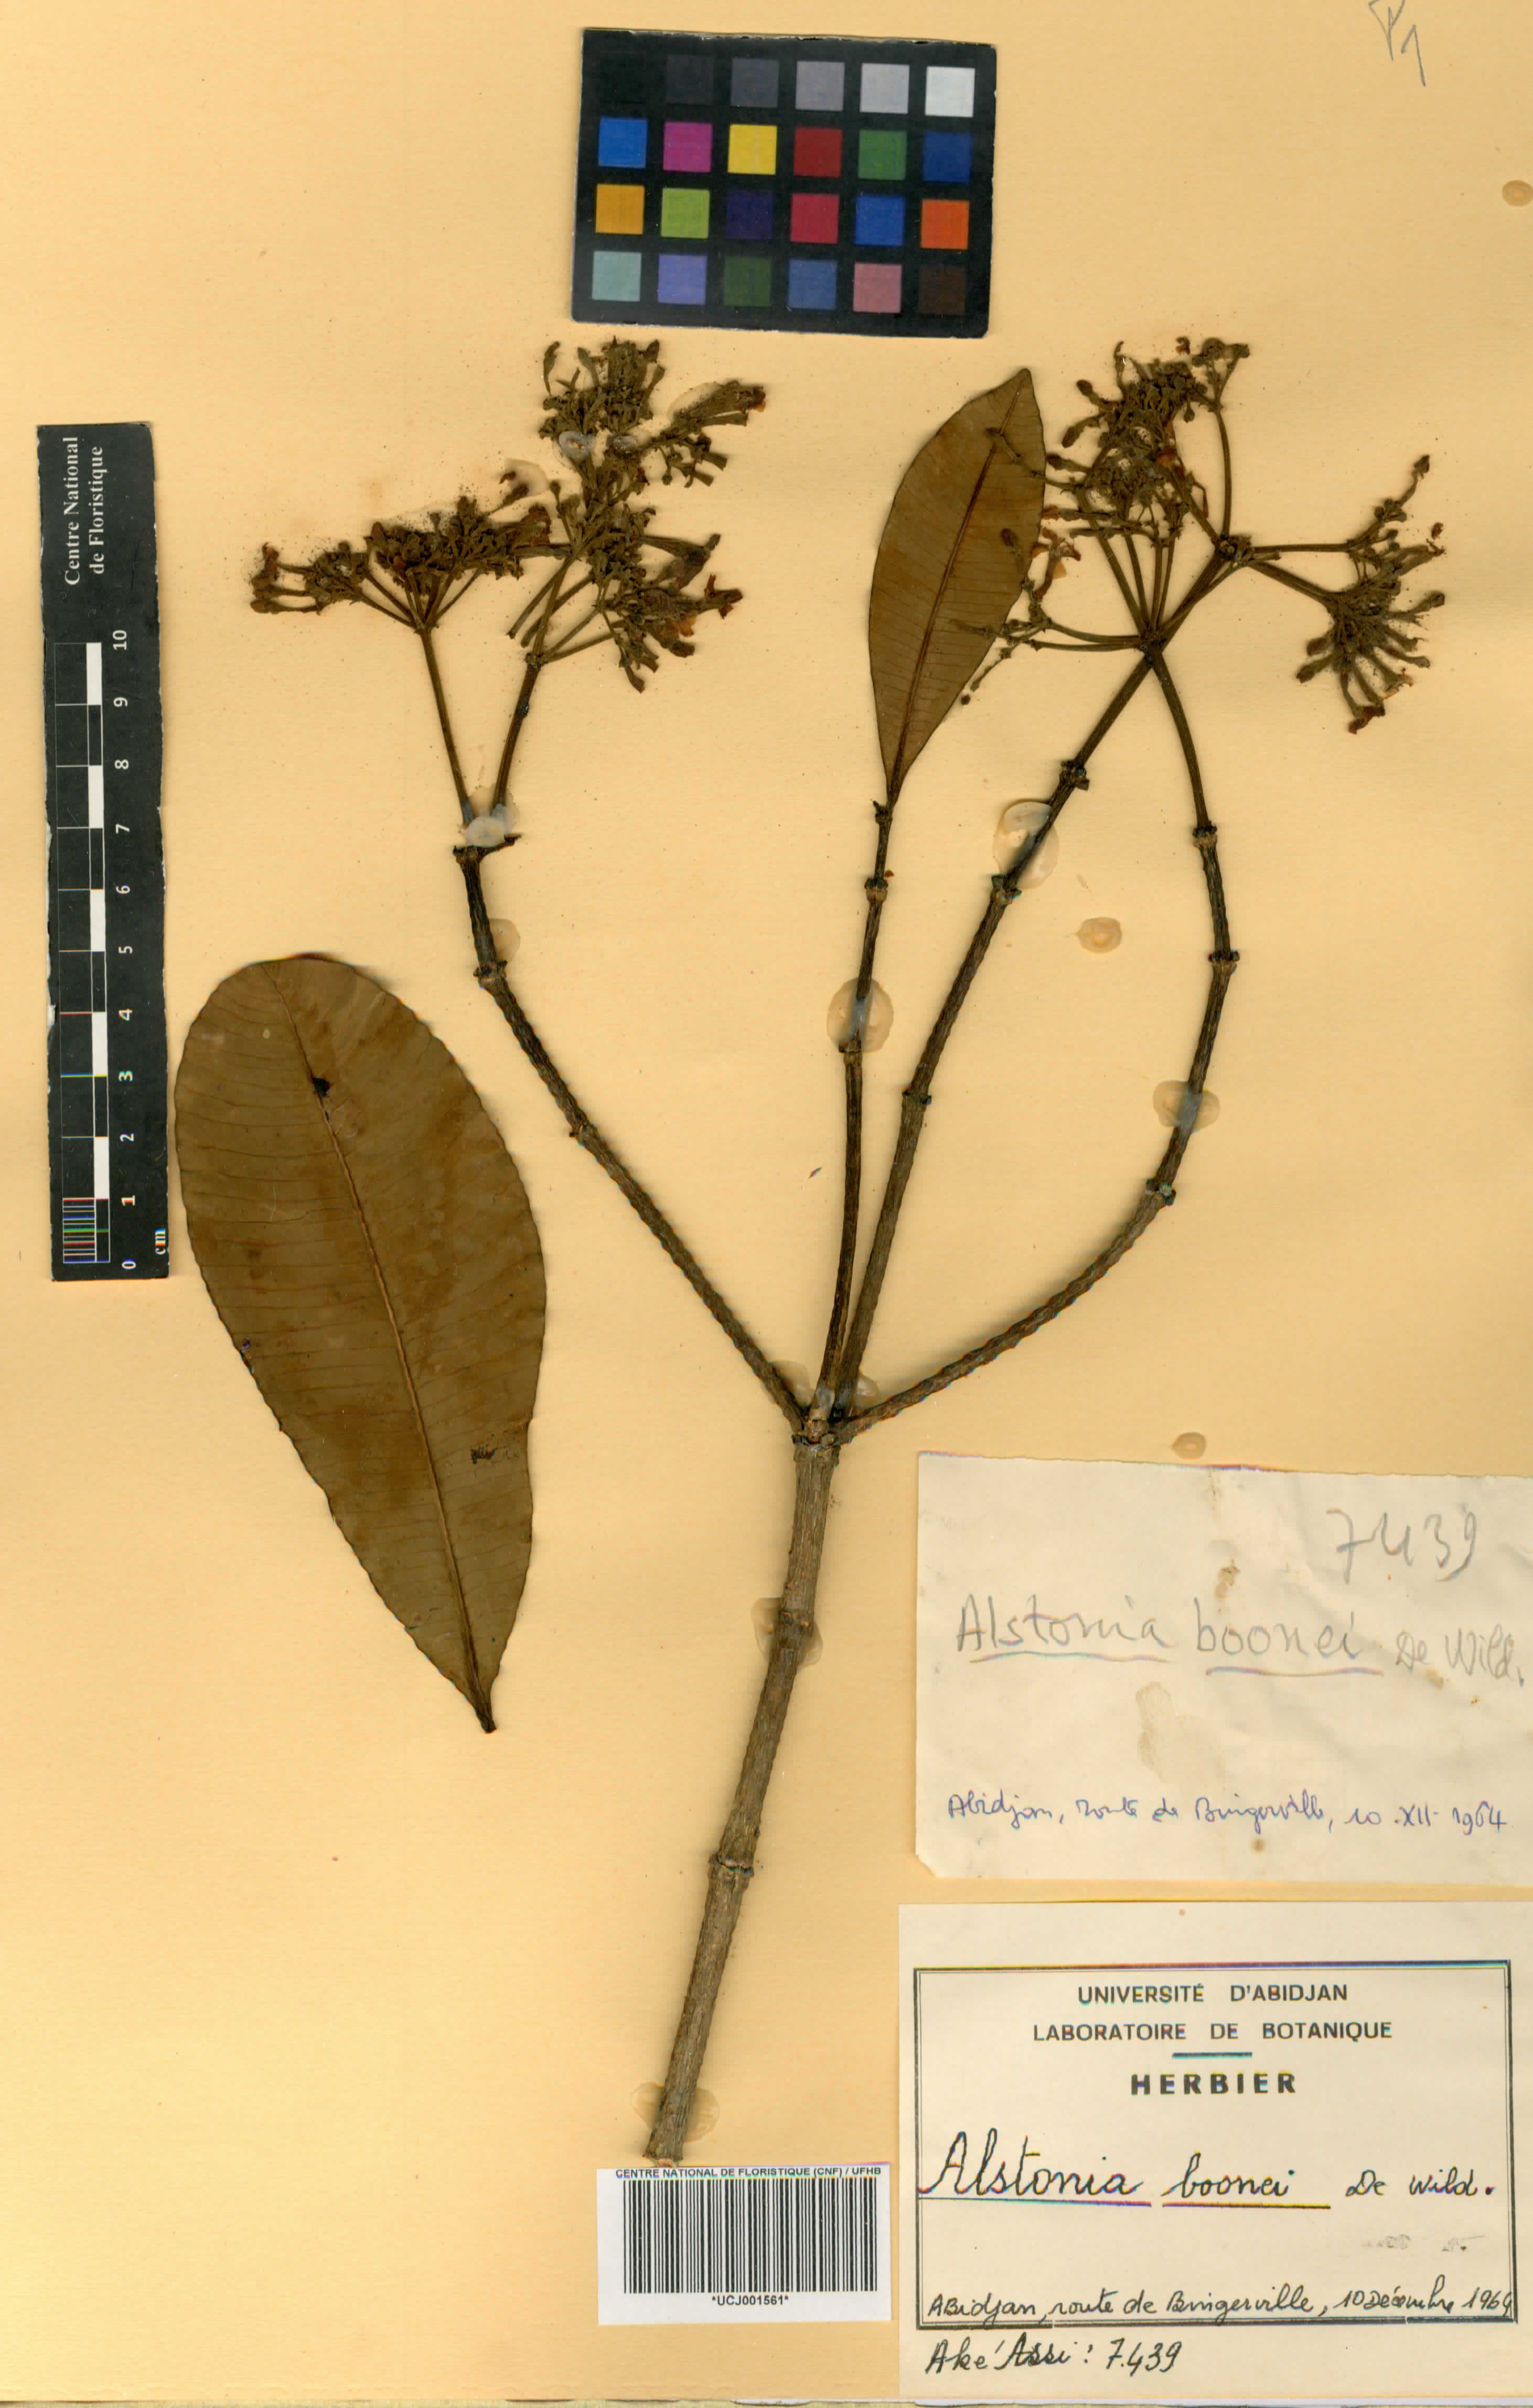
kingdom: Plantae
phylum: Tracheophyta
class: Magnoliopsida
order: Gentianales
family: Apocynaceae
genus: Alstonia
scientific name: Alstonia boonei
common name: Alstonia
